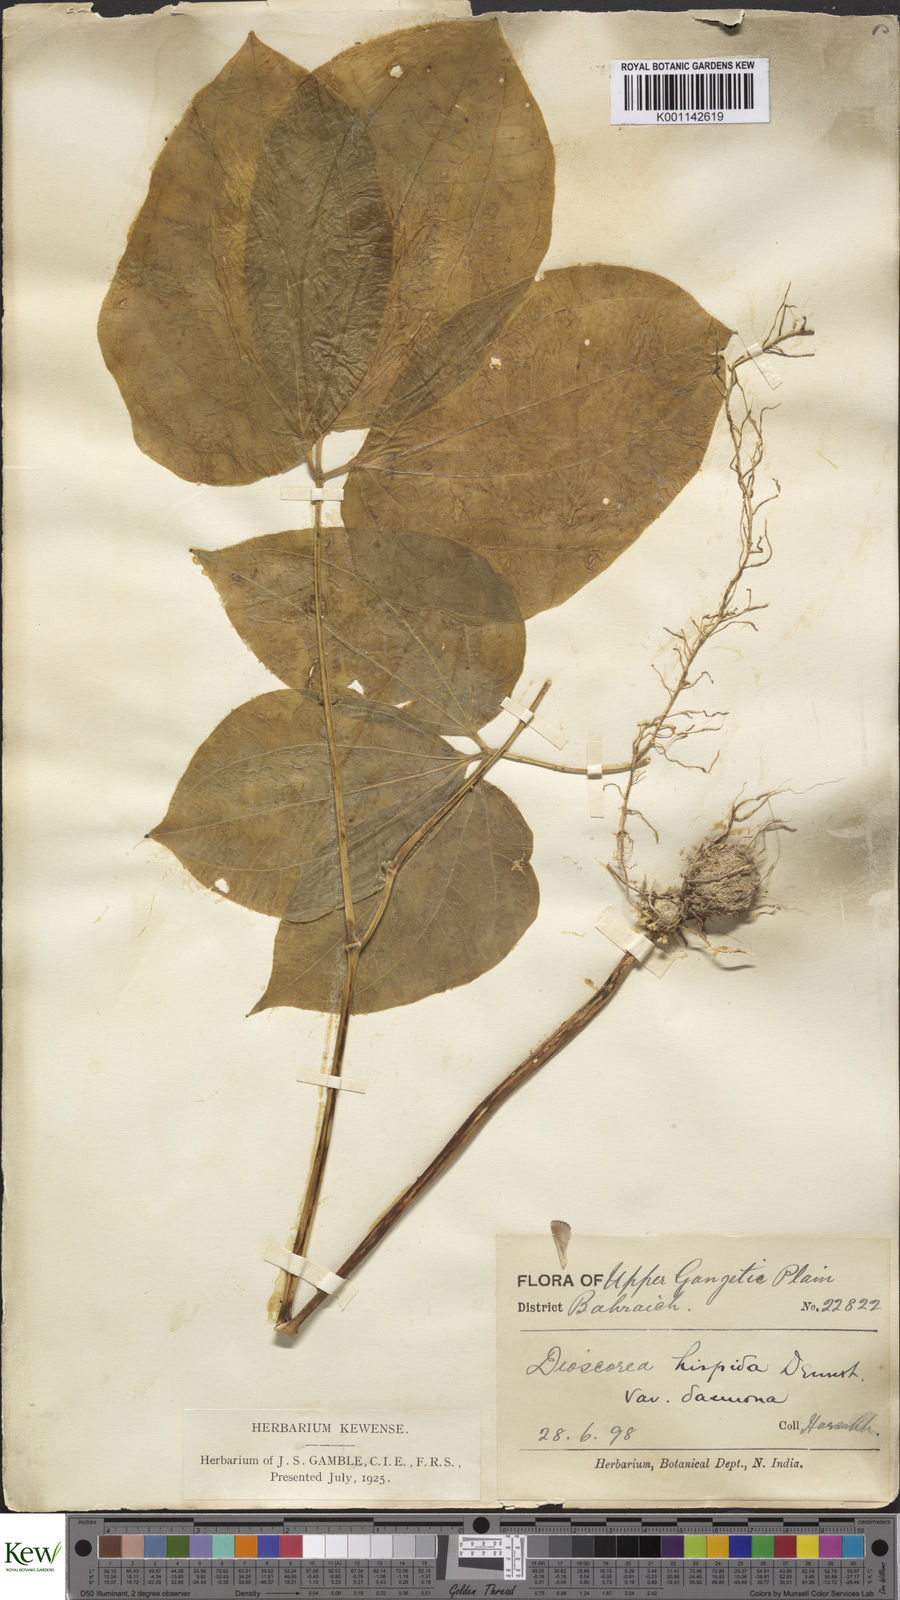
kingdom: Plantae
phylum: Tracheophyta
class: Liliopsida
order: Dioscoreales
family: Dioscoreaceae
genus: Dioscorea
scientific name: Dioscorea hispida
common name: Asiatic bitter yam
